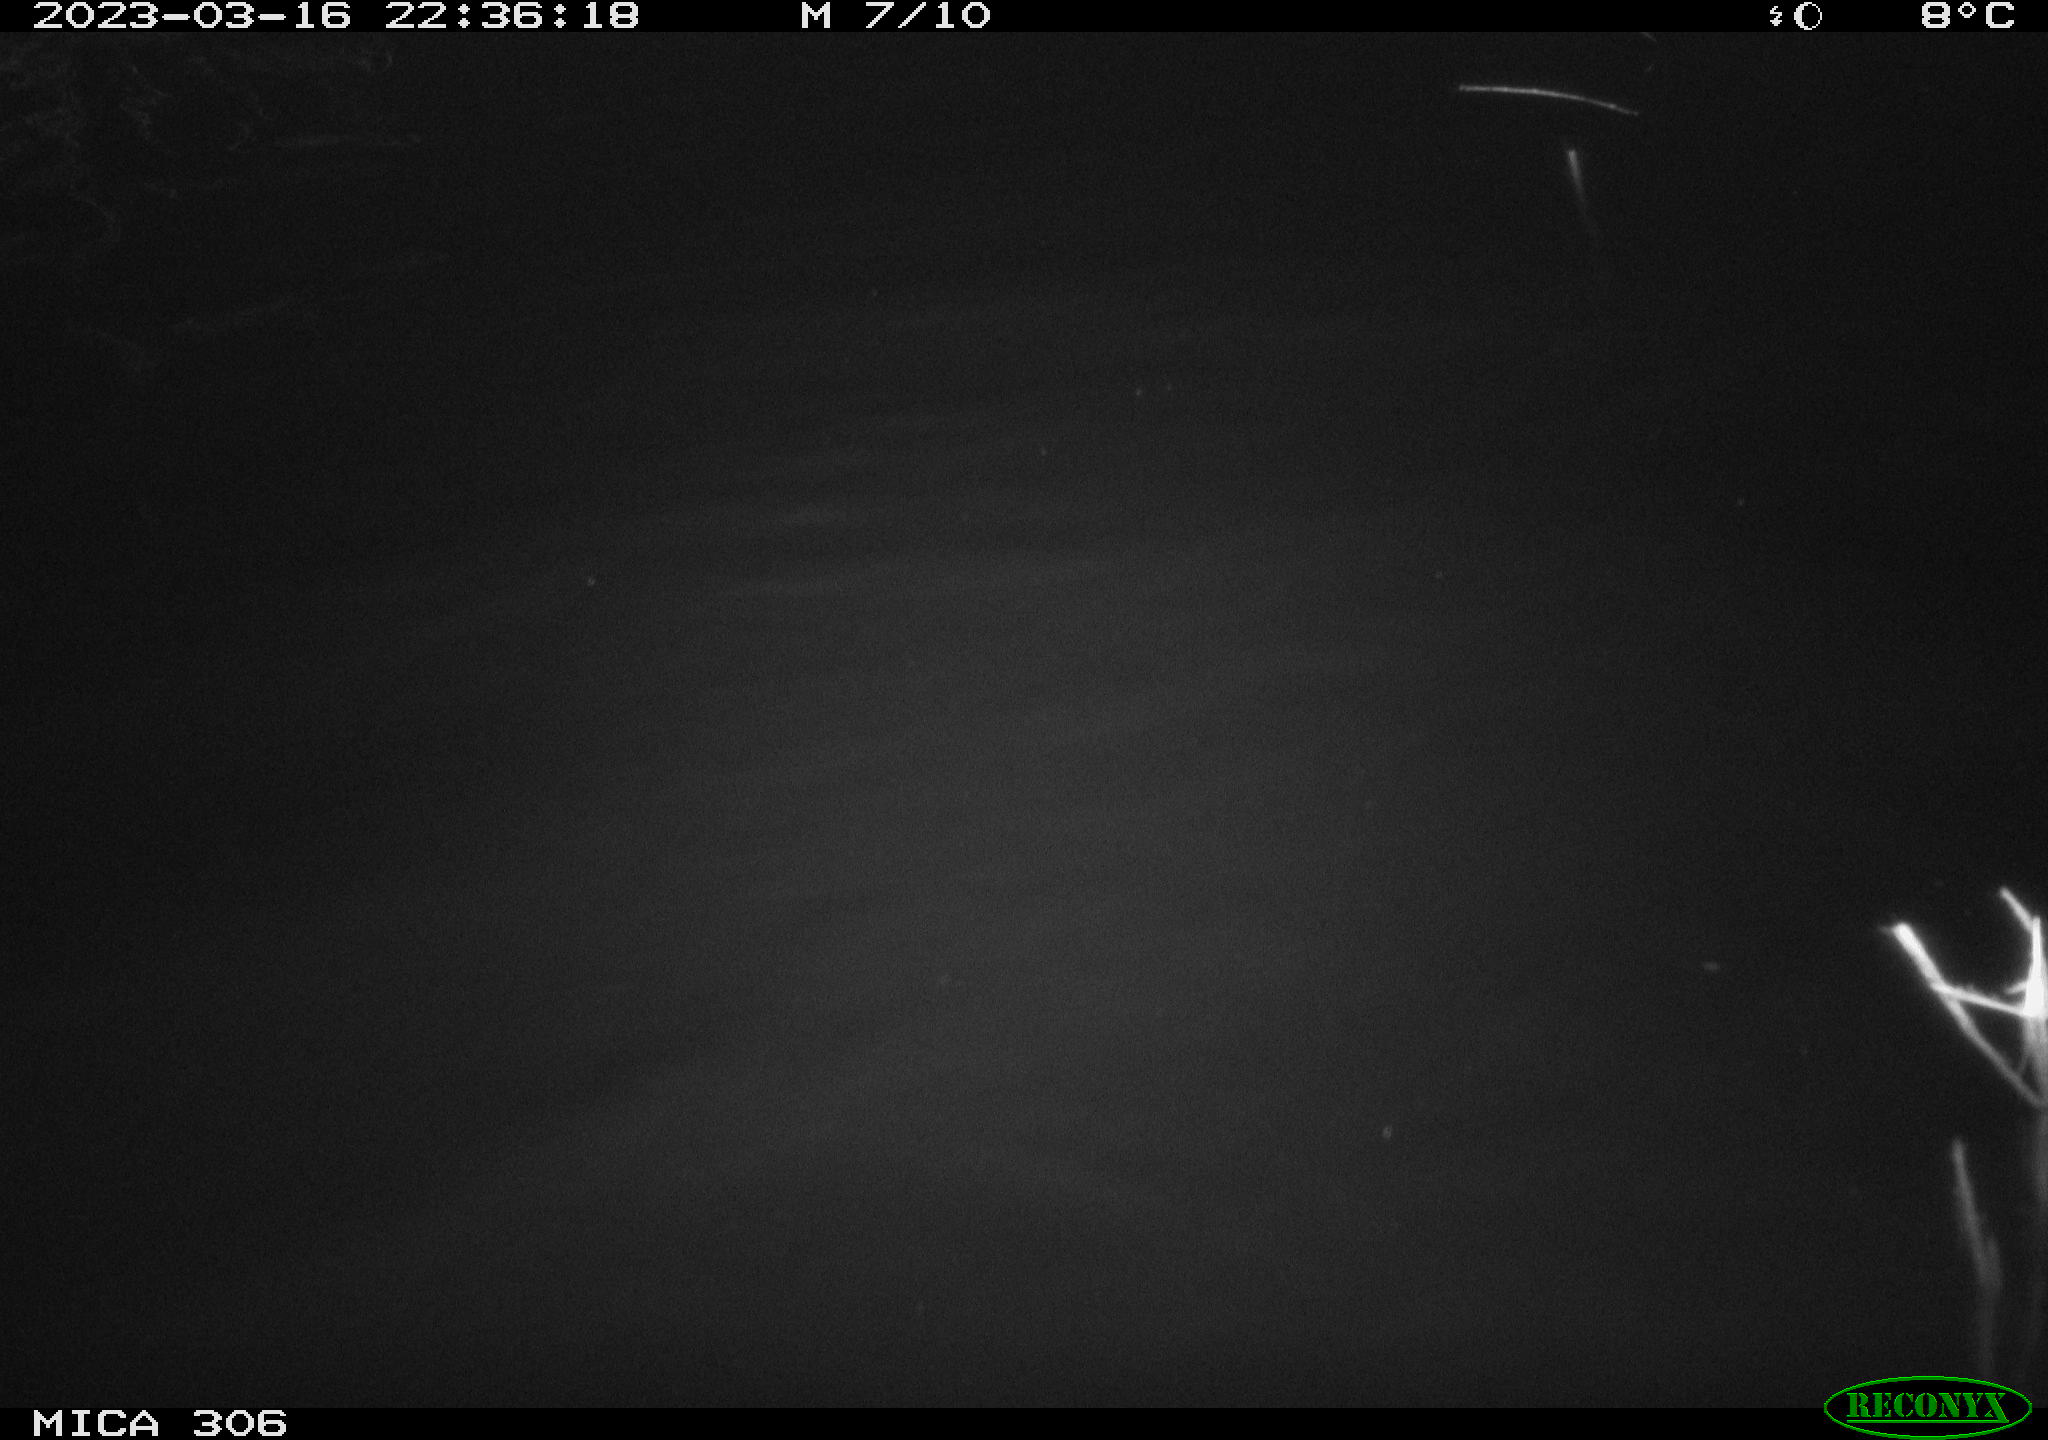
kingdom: Animalia
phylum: Chordata
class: Mammalia
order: Rodentia
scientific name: Rodentia
